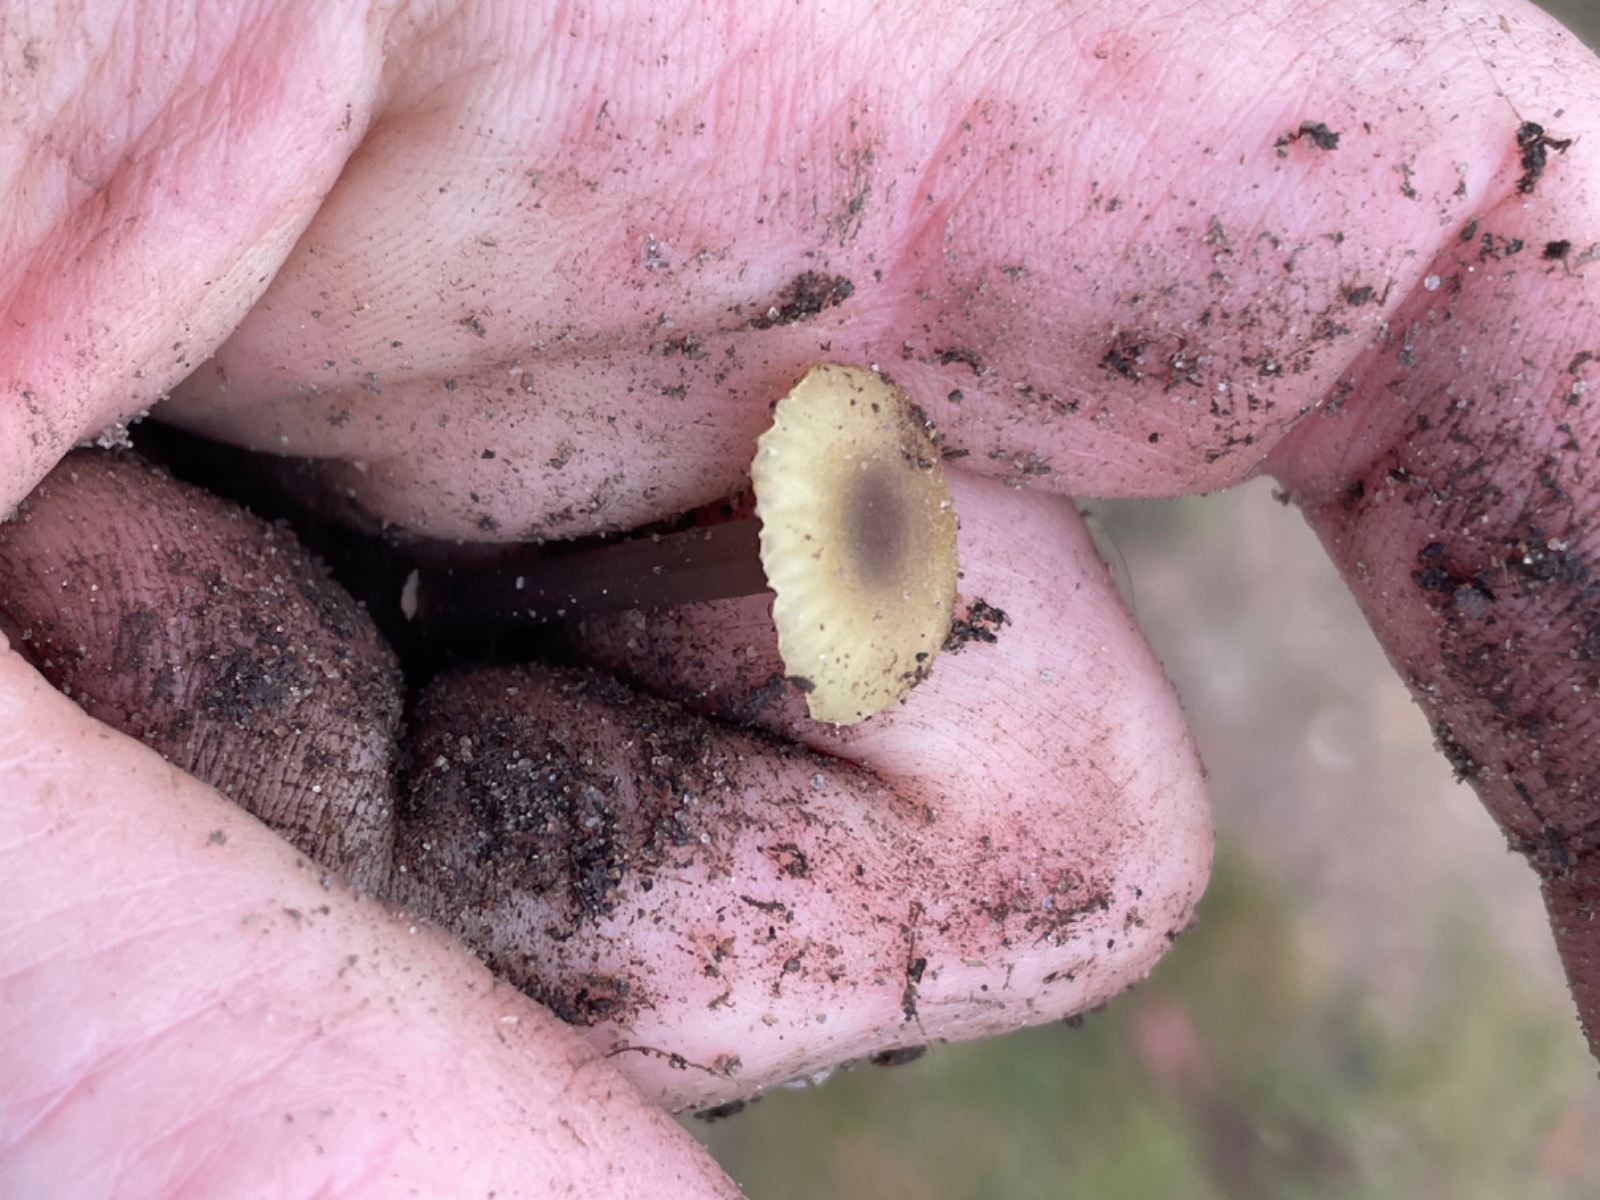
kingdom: Fungi
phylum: Basidiomycota
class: Agaricomycetes
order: Agaricales
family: Entolomataceae
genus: Entoloma
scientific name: Entoloma pleopodium
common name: duftende rødblad
